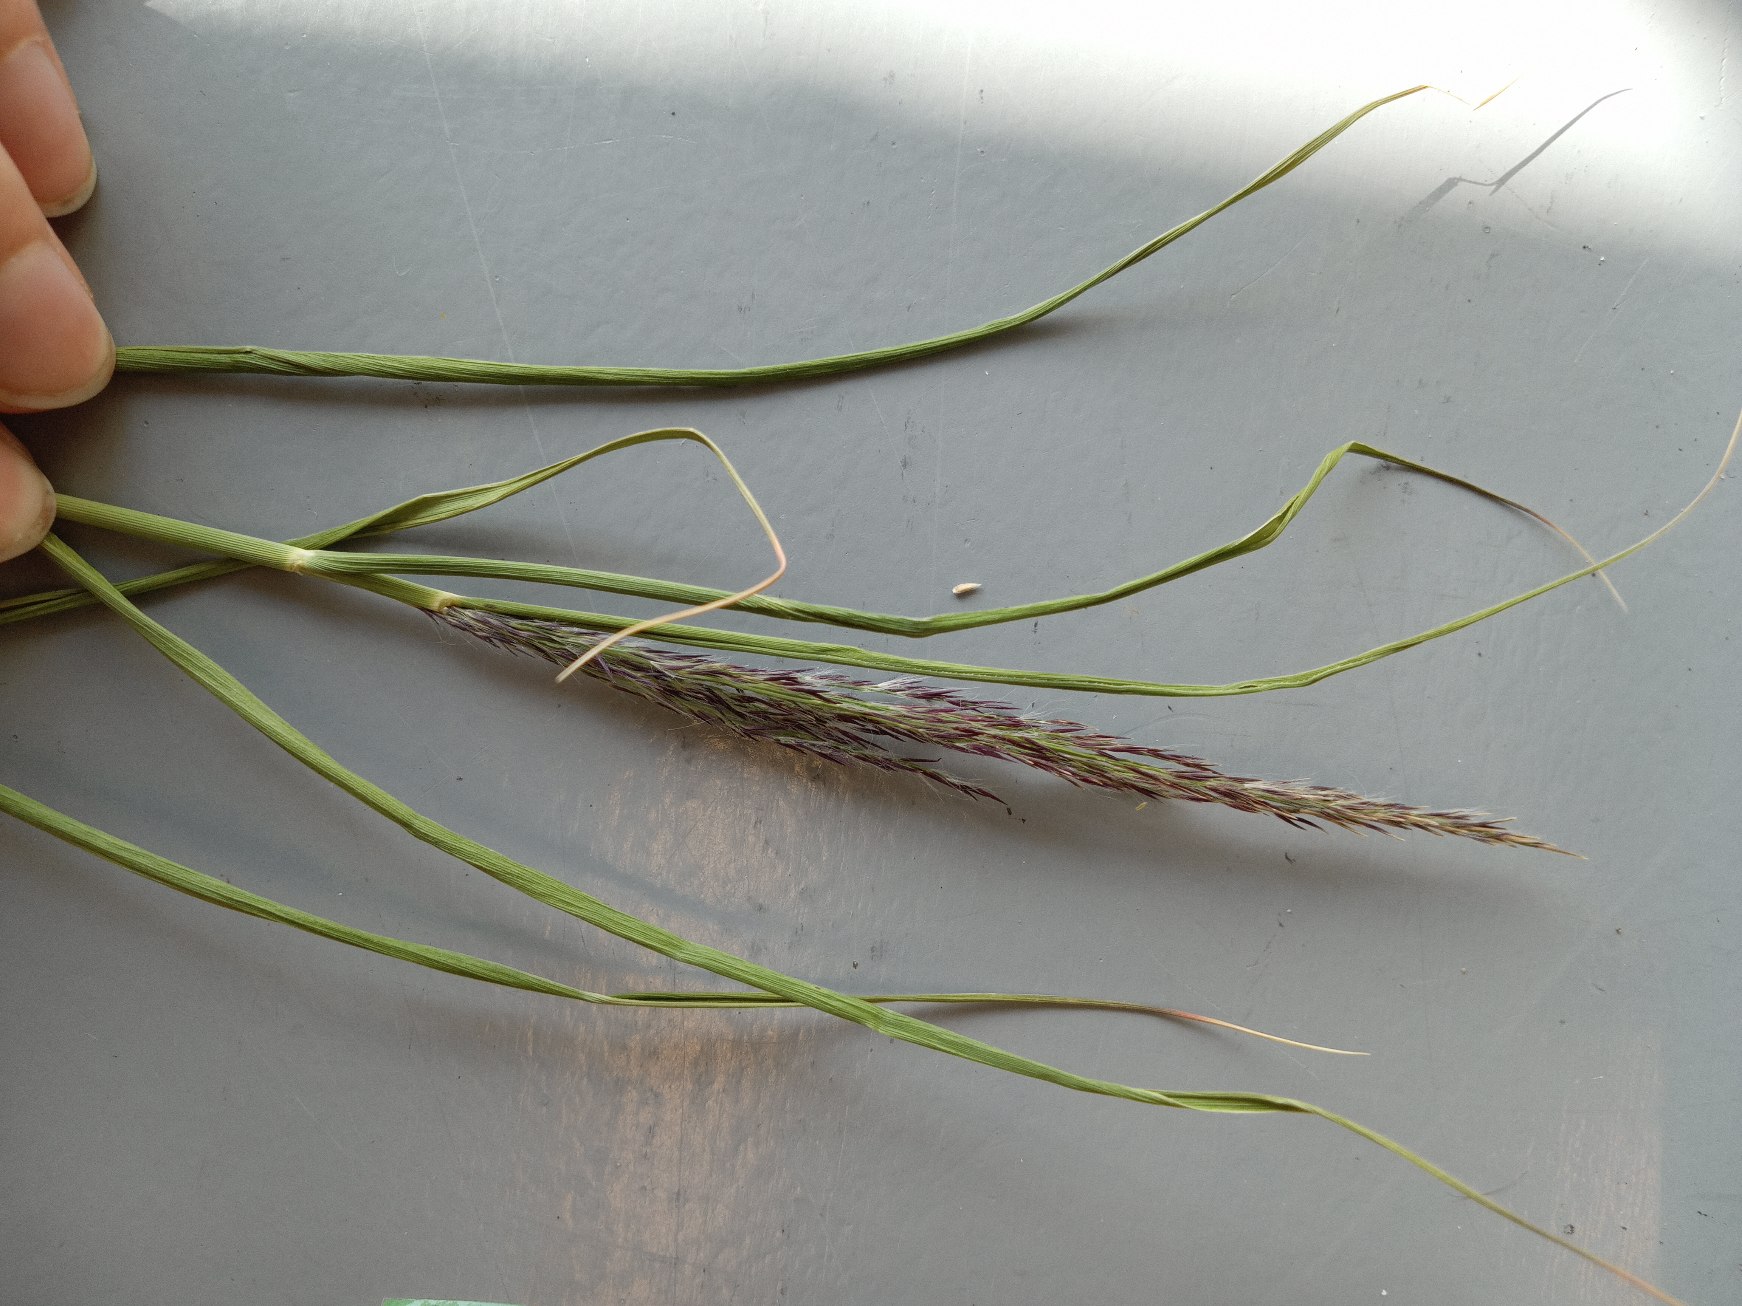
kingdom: Plantae
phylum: Tracheophyta
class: Liliopsida
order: Poales
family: Poaceae
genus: Phragmites
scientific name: Phragmites australis
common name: Tagrør
